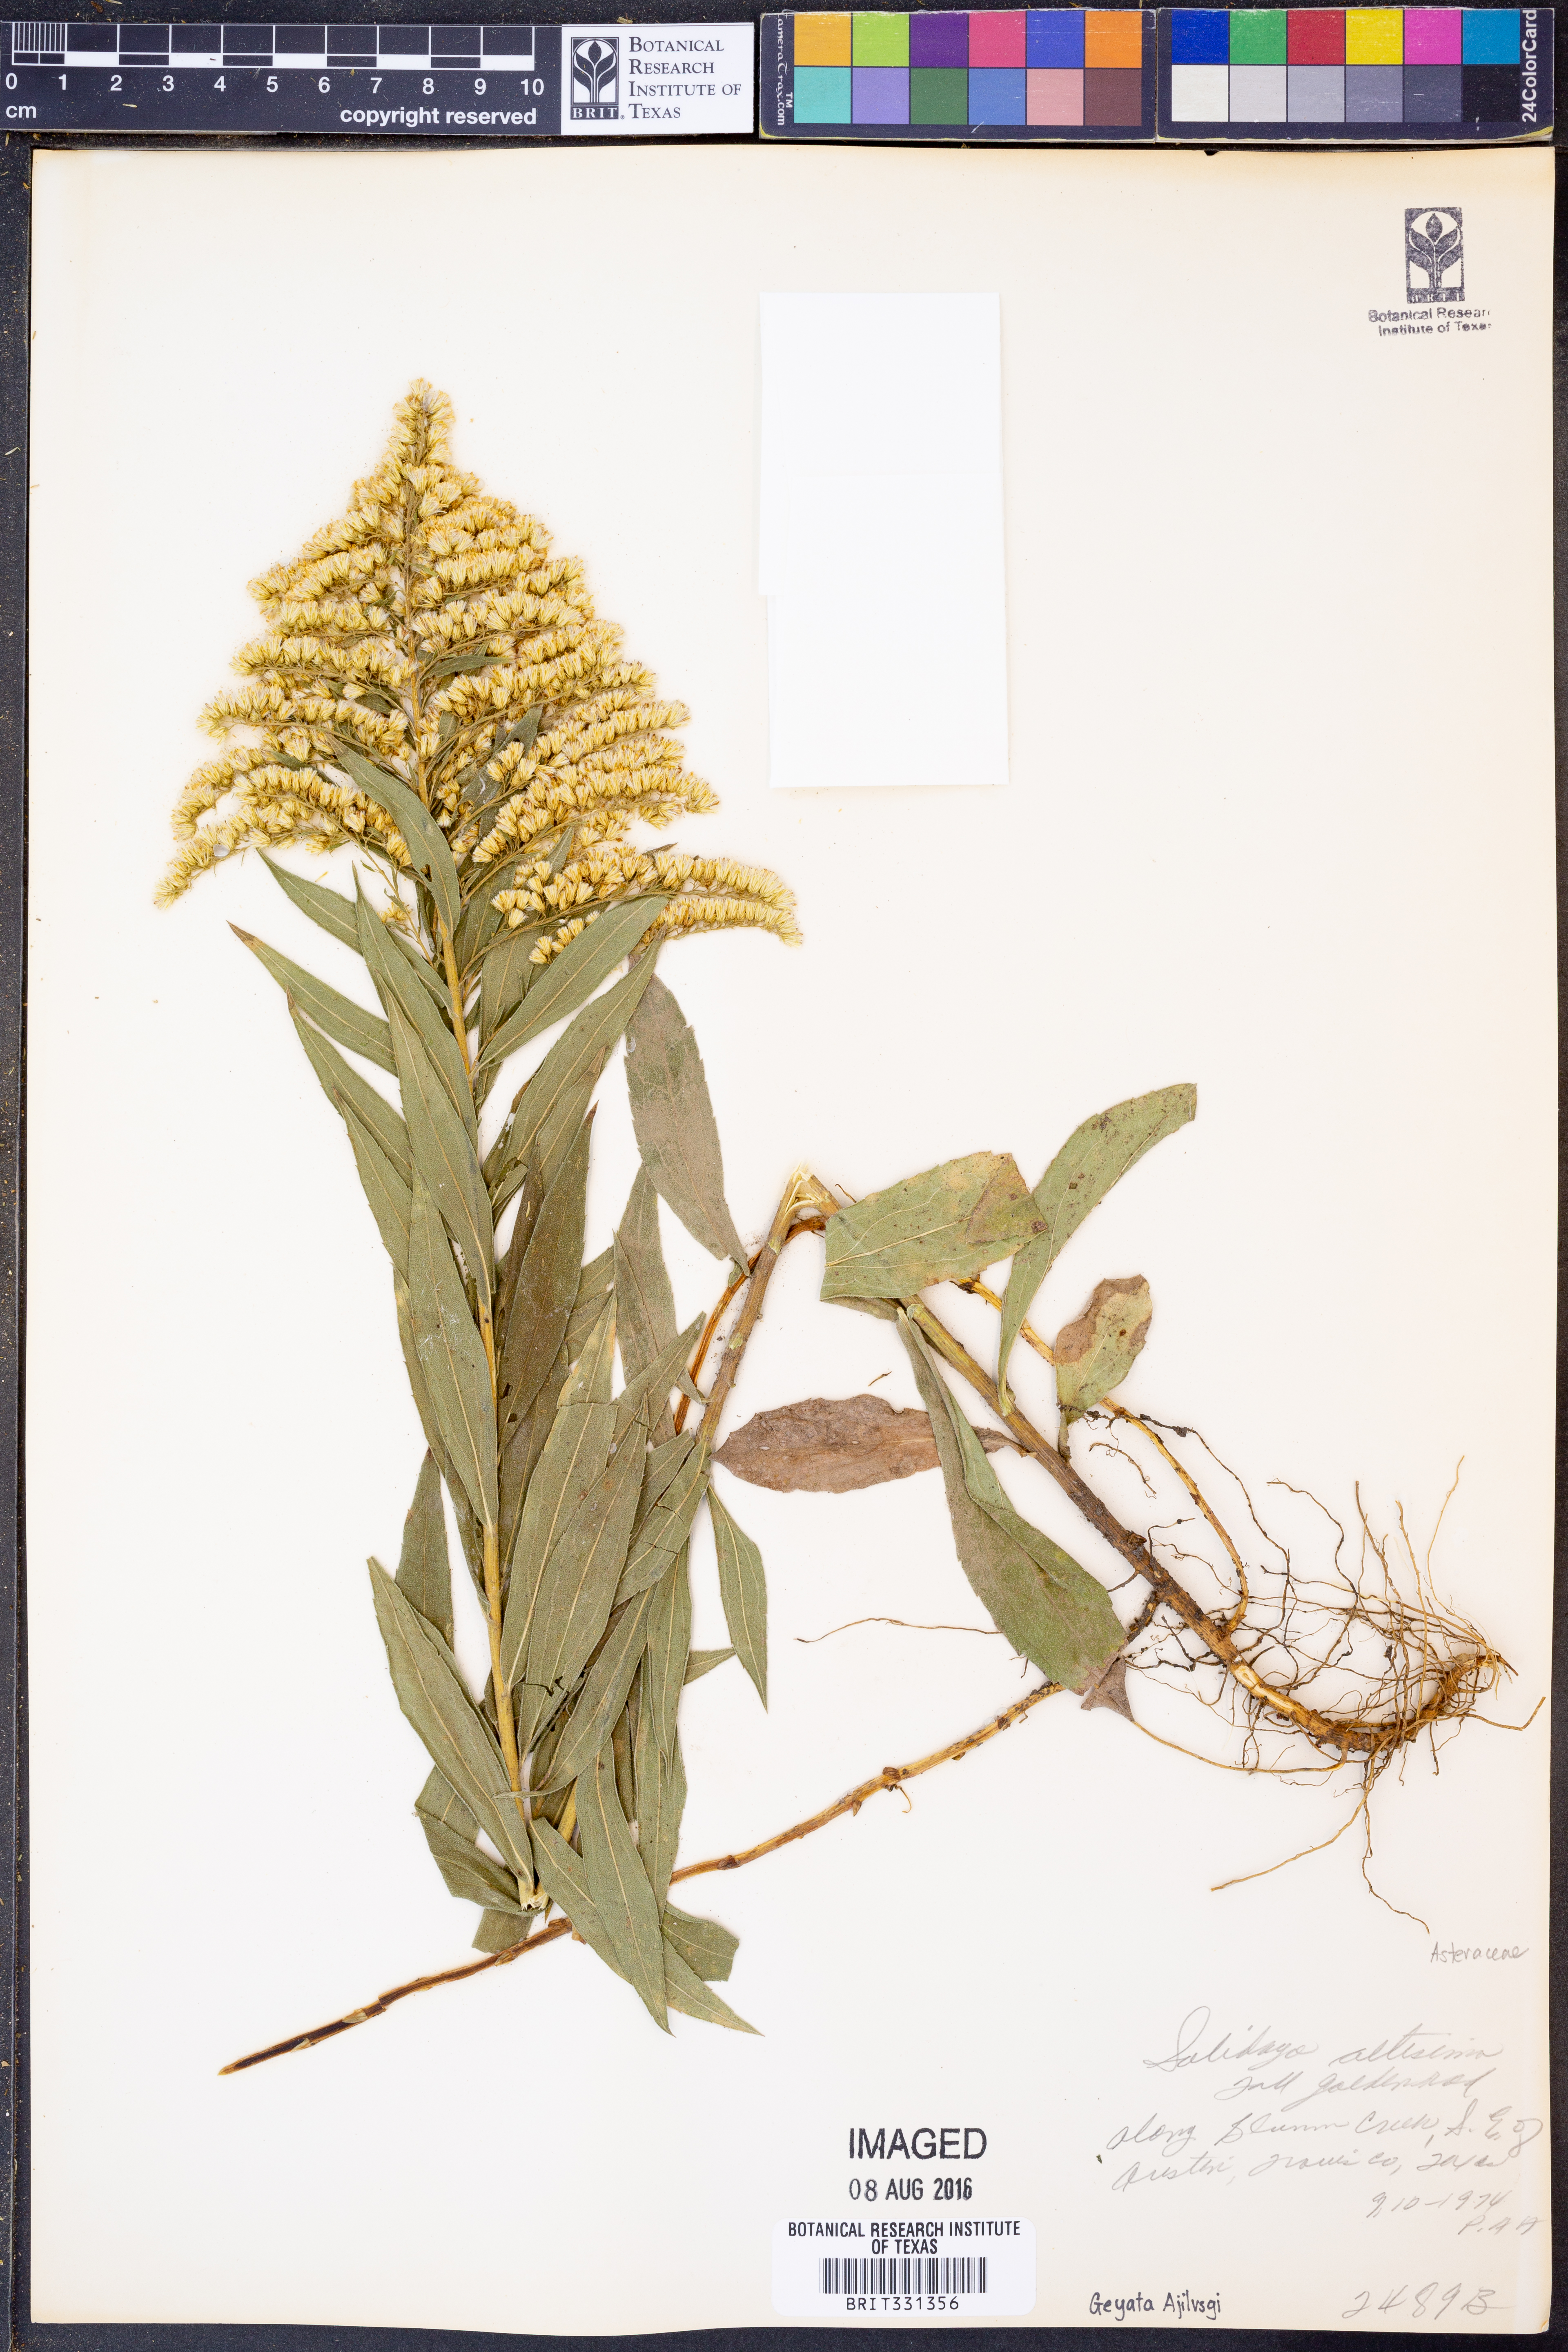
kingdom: Plantae
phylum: Tracheophyta
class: Magnoliopsida
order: Asterales
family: Asteraceae
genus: Solidago
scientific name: Solidago altissima
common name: Late goldenrod
